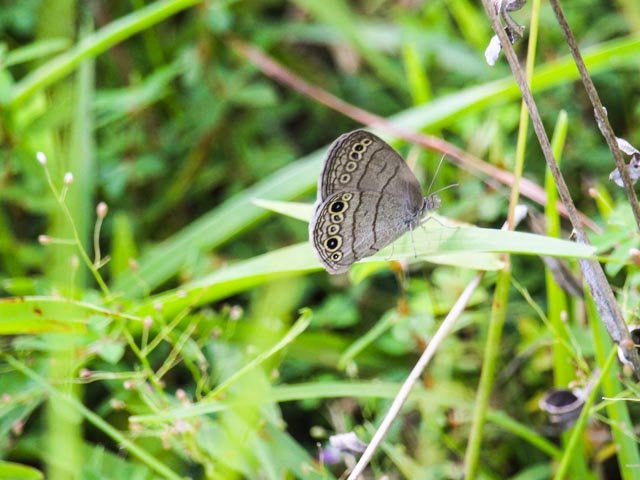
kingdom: Animalia
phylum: Arthropoda
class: Insecta
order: Lepidoptera
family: Nymphalidae
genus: Hermeuptychia
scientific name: Hermeuptychia hermes
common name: Carolina Satyr
